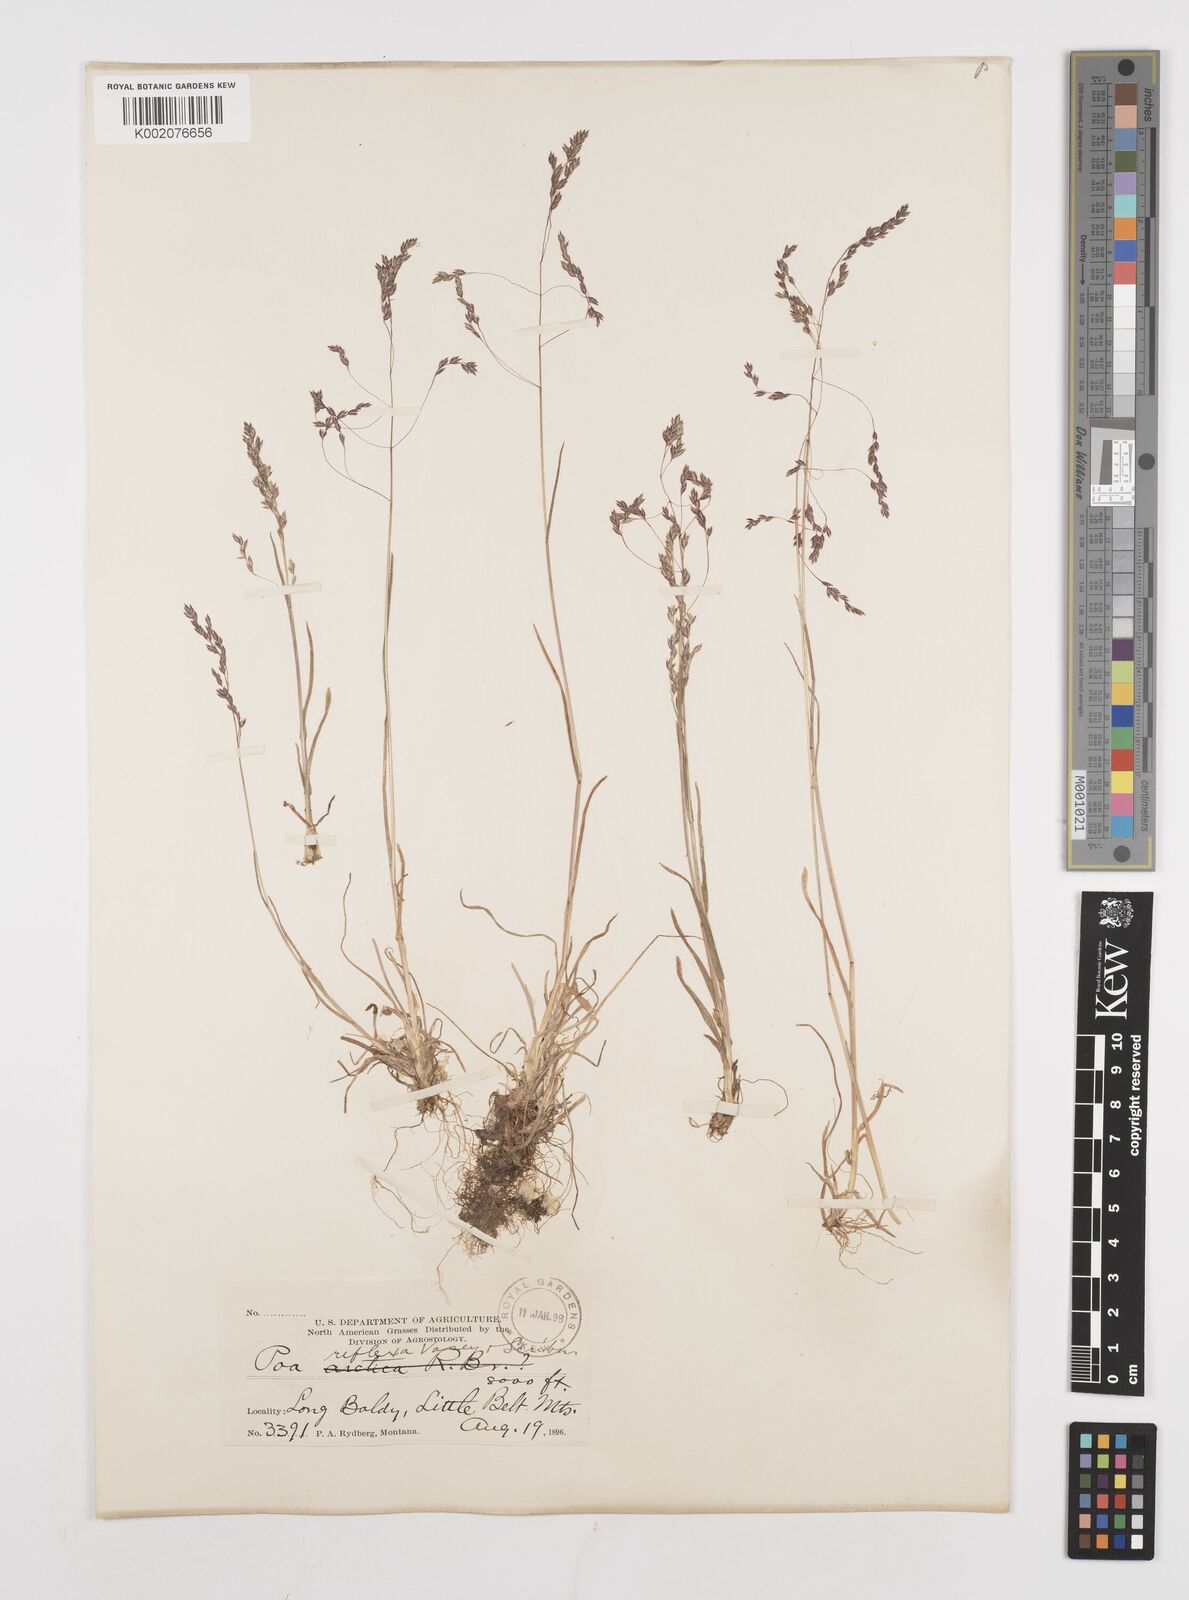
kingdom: Plantae
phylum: Tracheophyta
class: Liliopsida
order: Poales
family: Poaceae
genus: Poa
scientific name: Poa reflexa
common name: Nodding bluegrass
